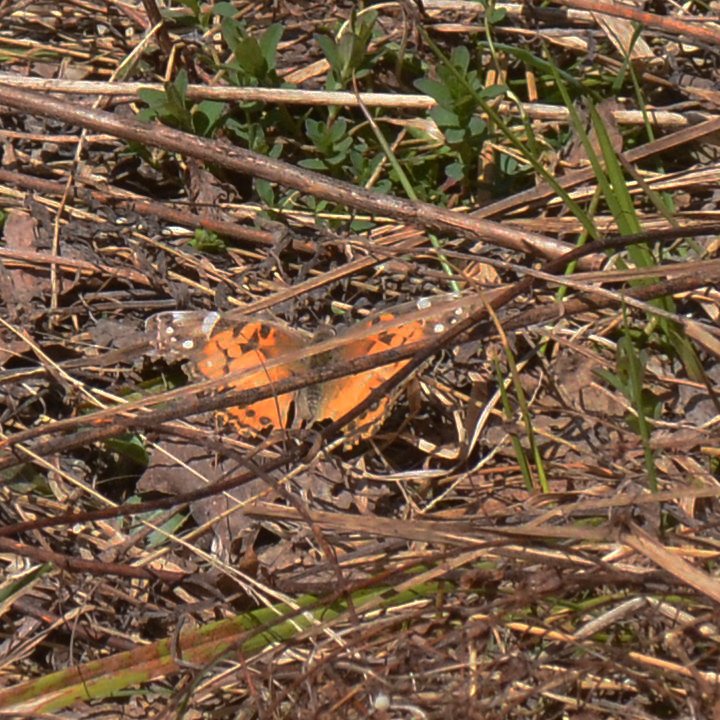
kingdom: Animalia
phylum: Arthropoda
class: Insecta
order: Lepidoptera
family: Nymphalidae
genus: Vanessa
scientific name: Vanessa virginiensis
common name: American Lady
